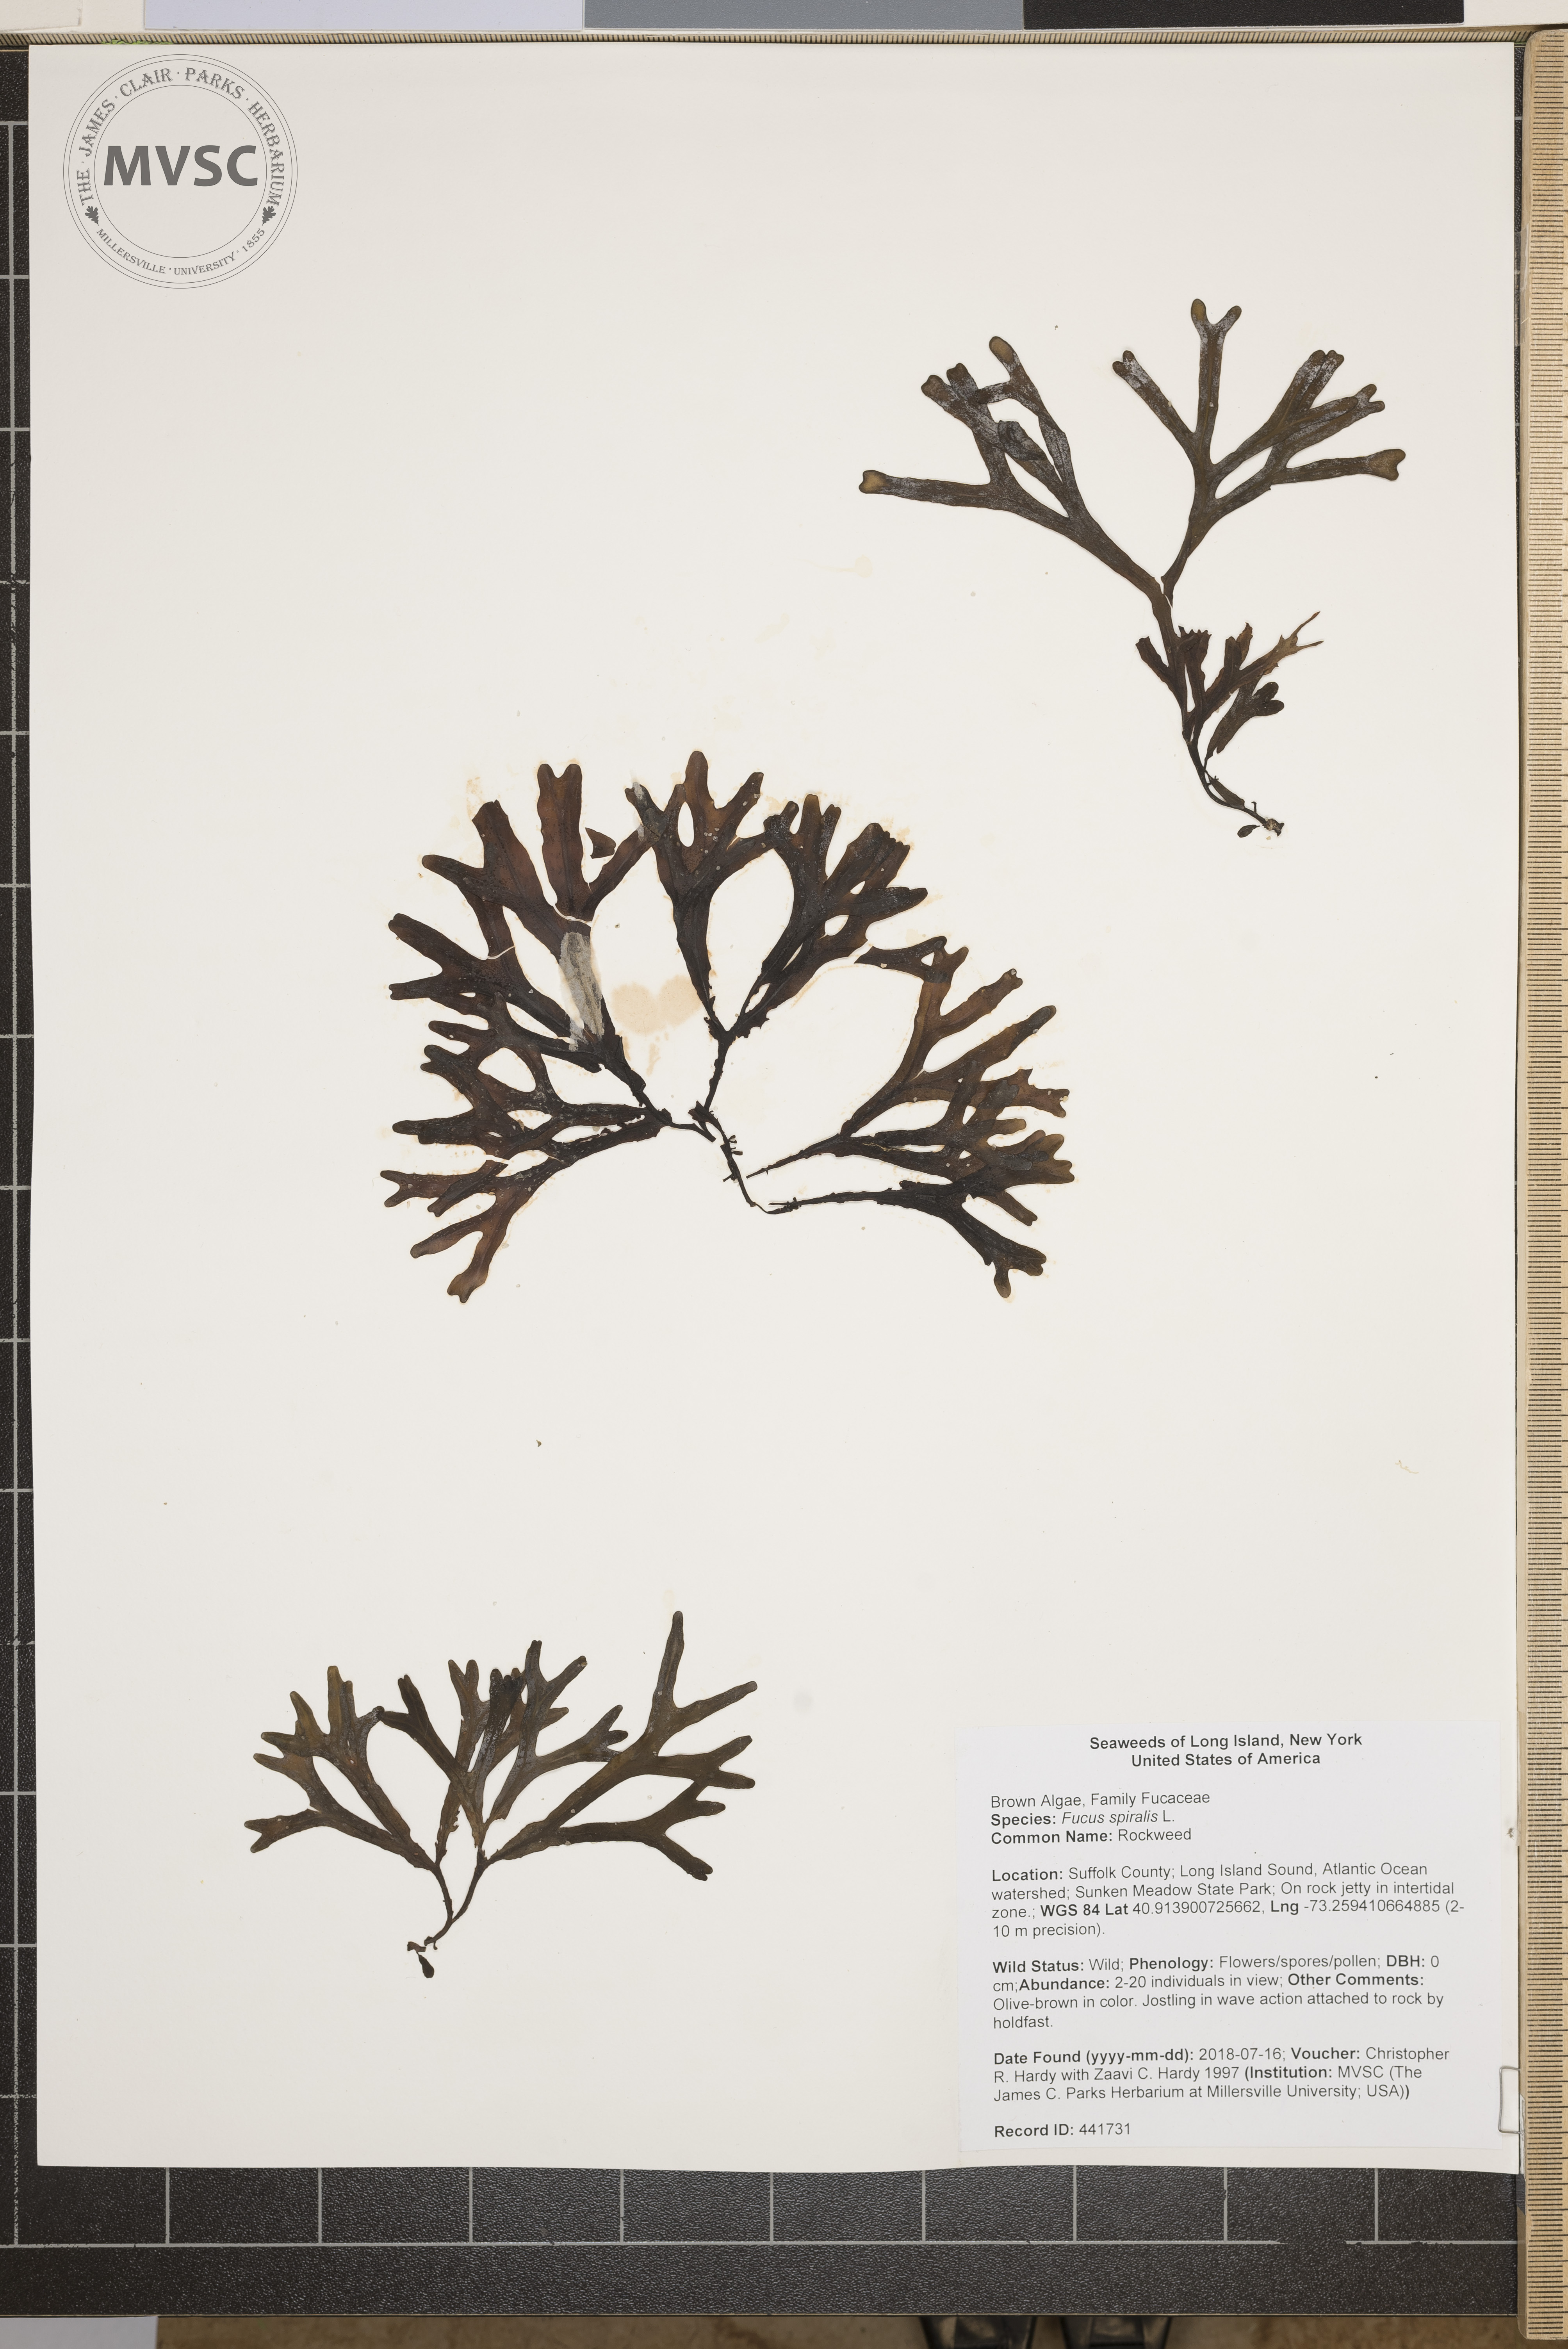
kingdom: Chromista
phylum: Ochrophyta
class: Phaeophyceae
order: Fucales
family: Fucaceae
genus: Fucus
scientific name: Fucus spiralis
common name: Rockweed
